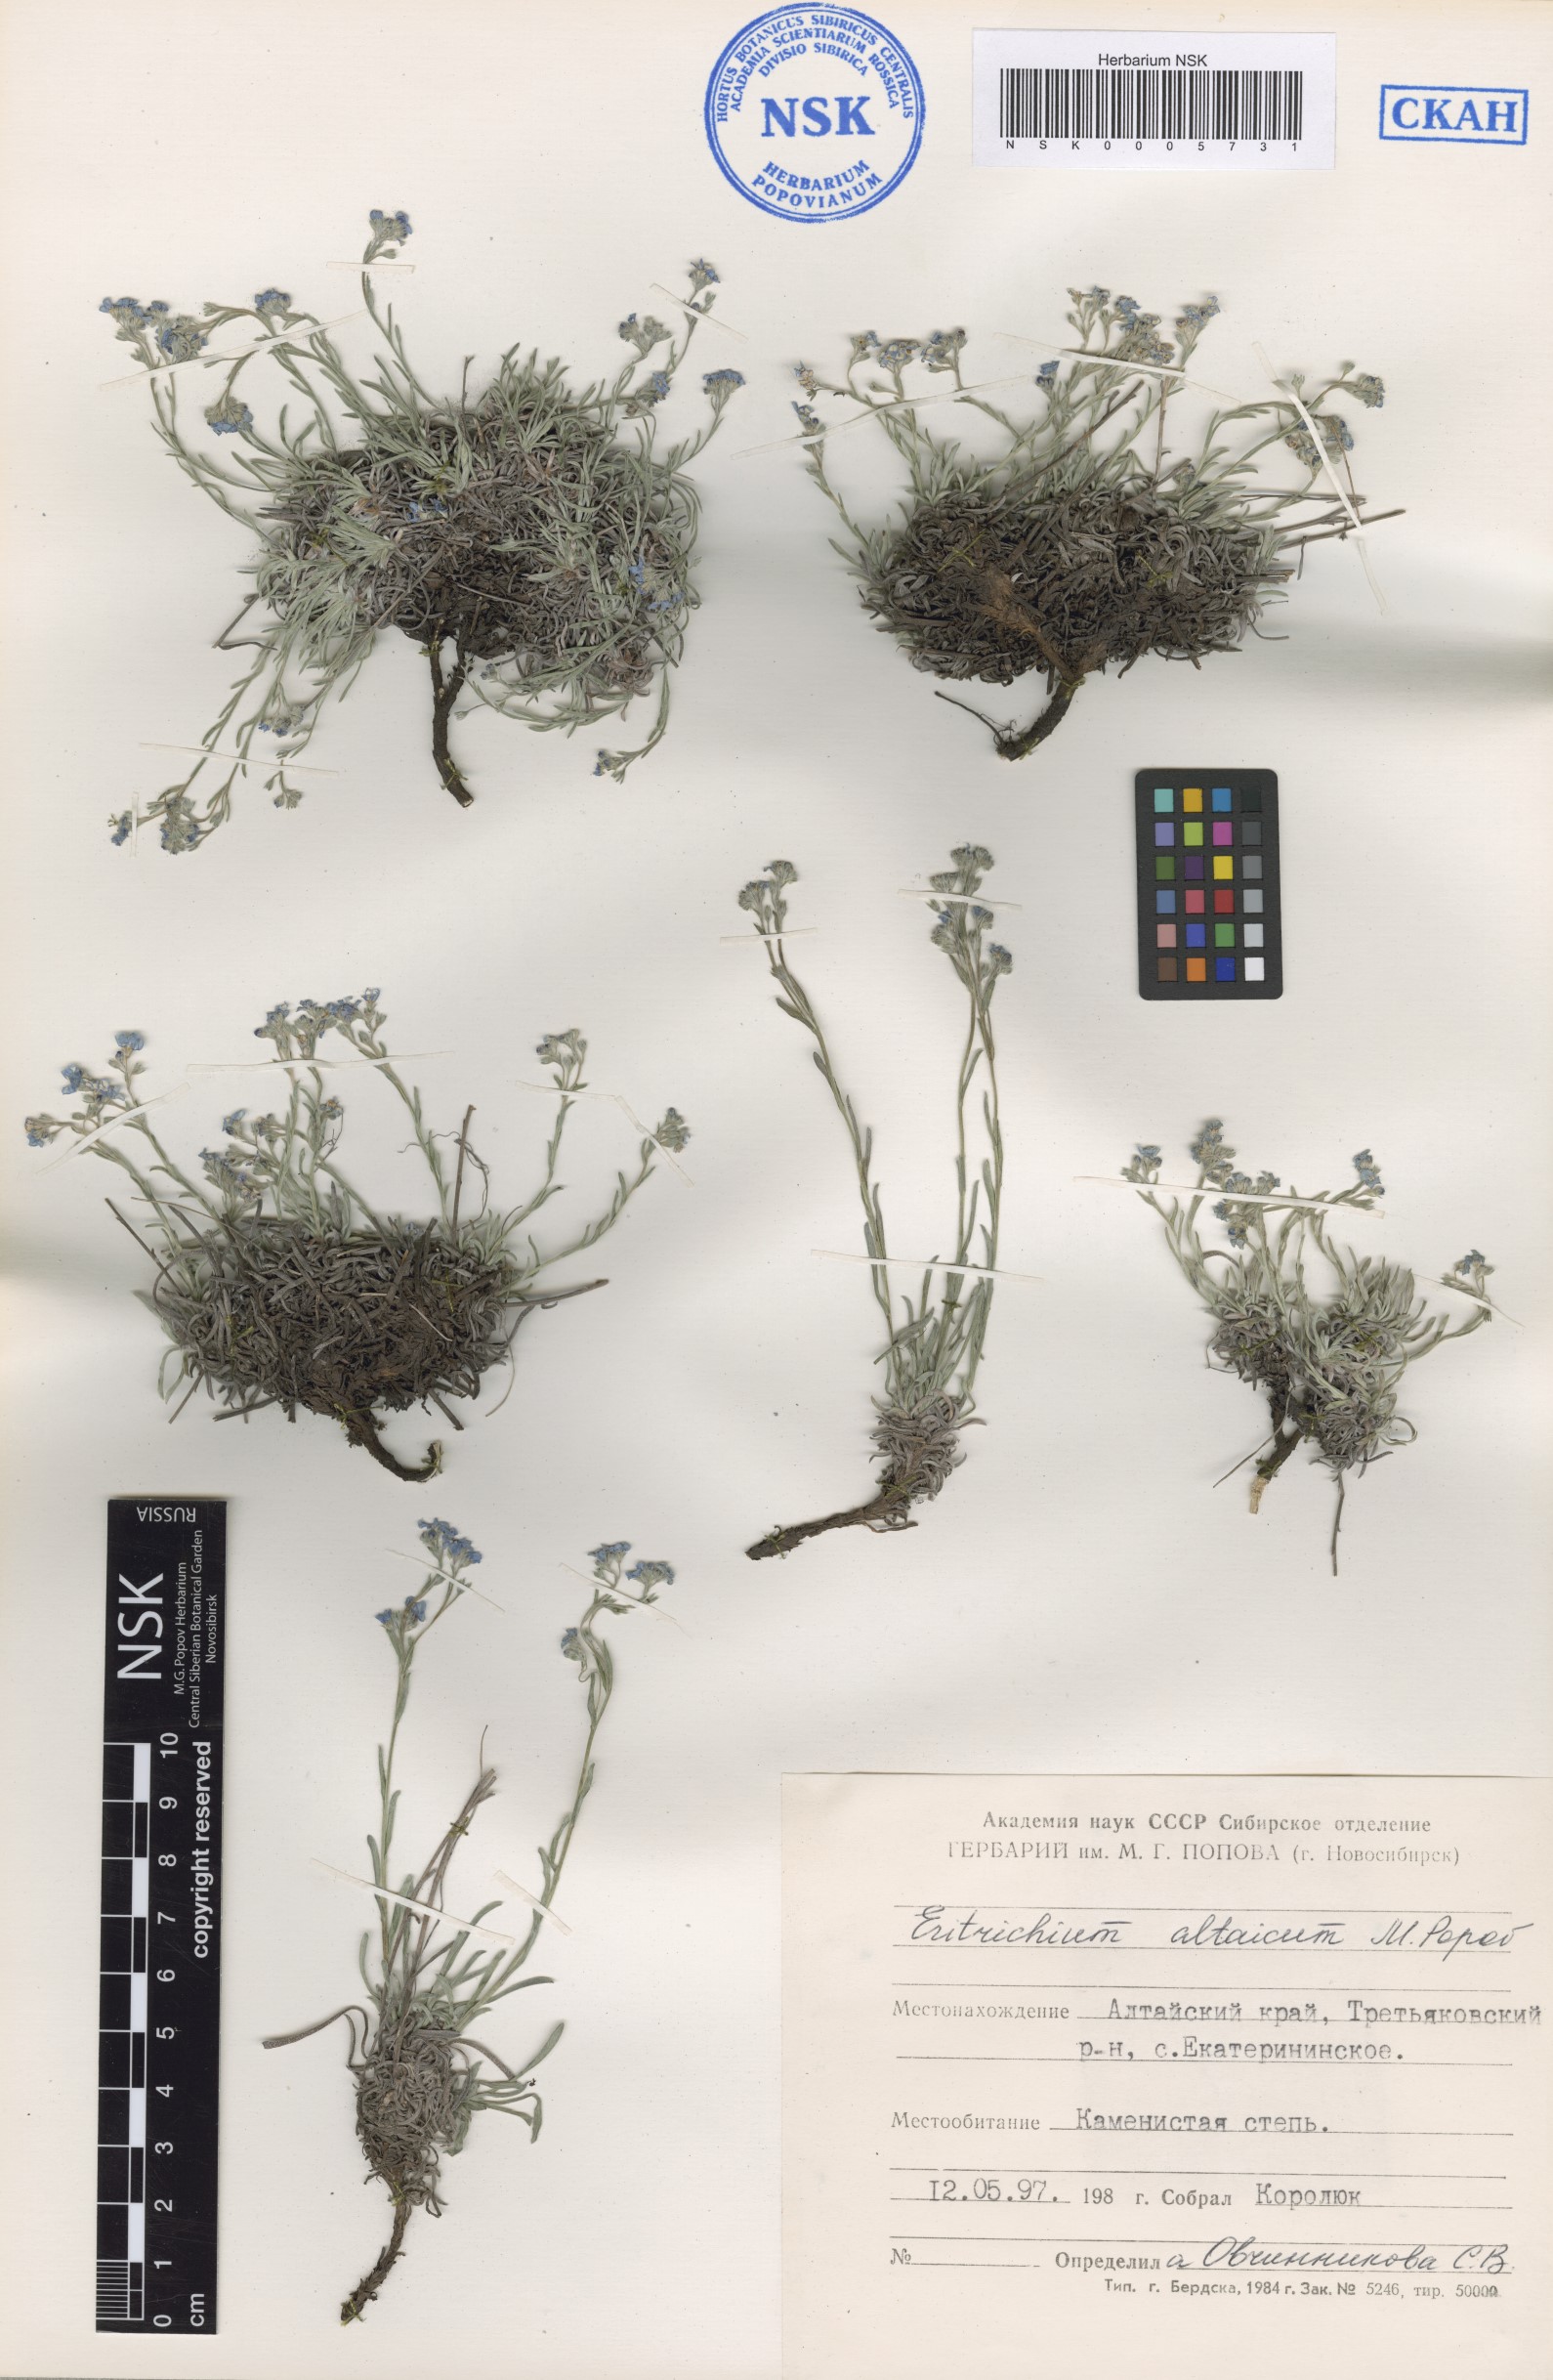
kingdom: Plantae
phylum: Tracheophyta
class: Magnoliopsida
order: Boraginales
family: Boraginaceae
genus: Eritrichium
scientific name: Eritrichium pauciflorum
